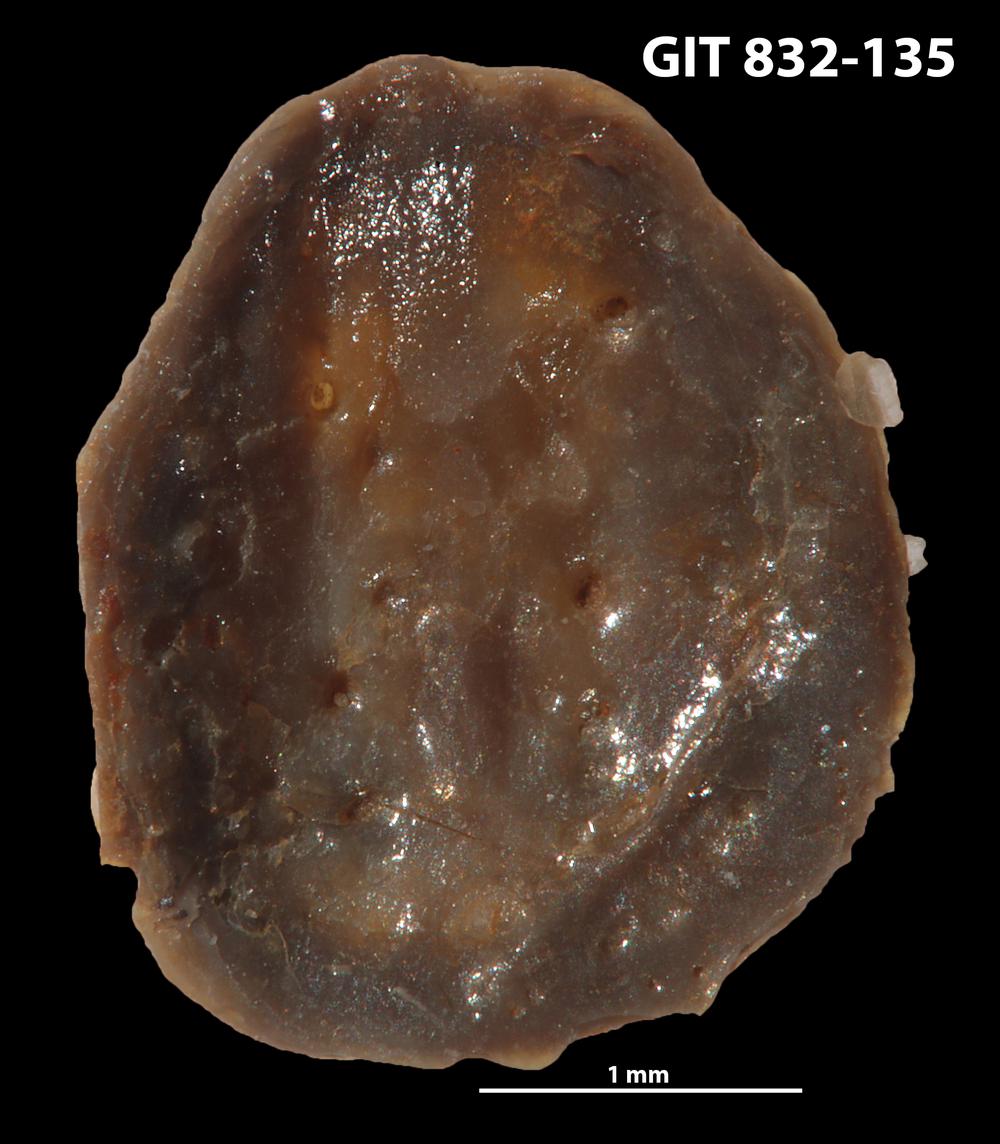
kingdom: Animalia
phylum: Brachiopoda
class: Lingulata
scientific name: Lingulata
